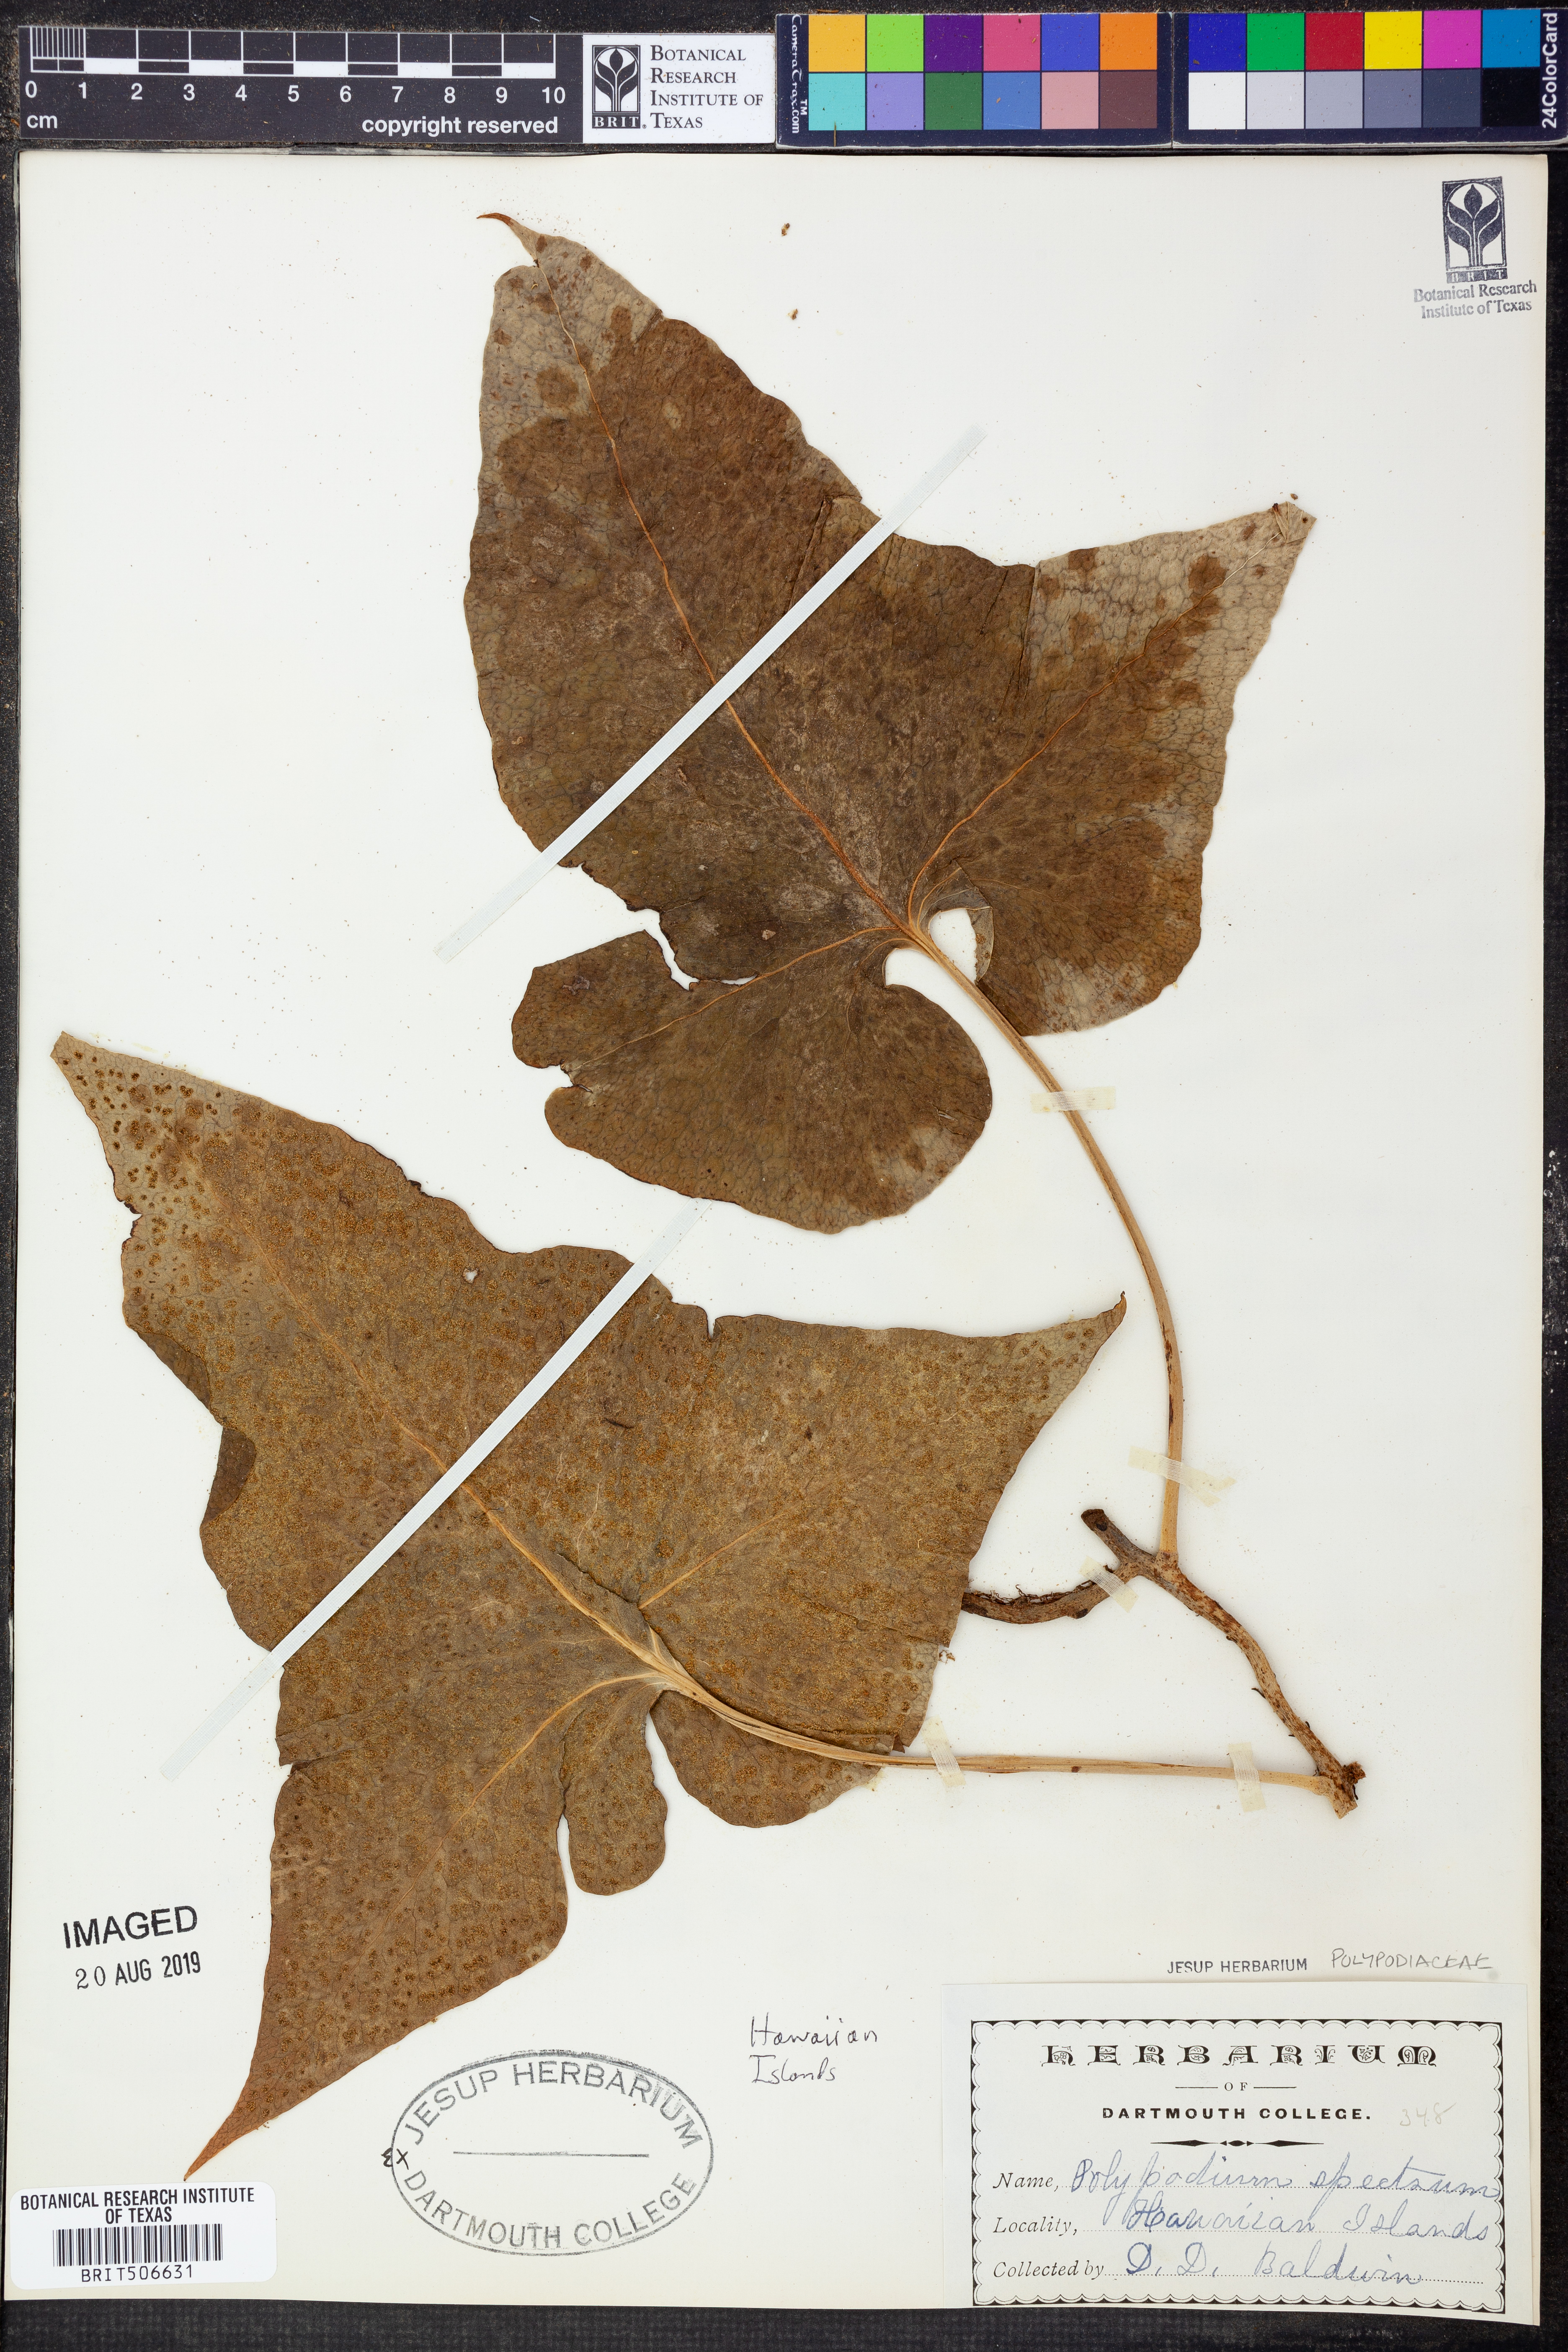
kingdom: Plantae
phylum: Tracheophyta
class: Polypodiopsida
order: Polypodiales
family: Polypodiaceae
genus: Microsorum
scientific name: Microsorum spectrum
